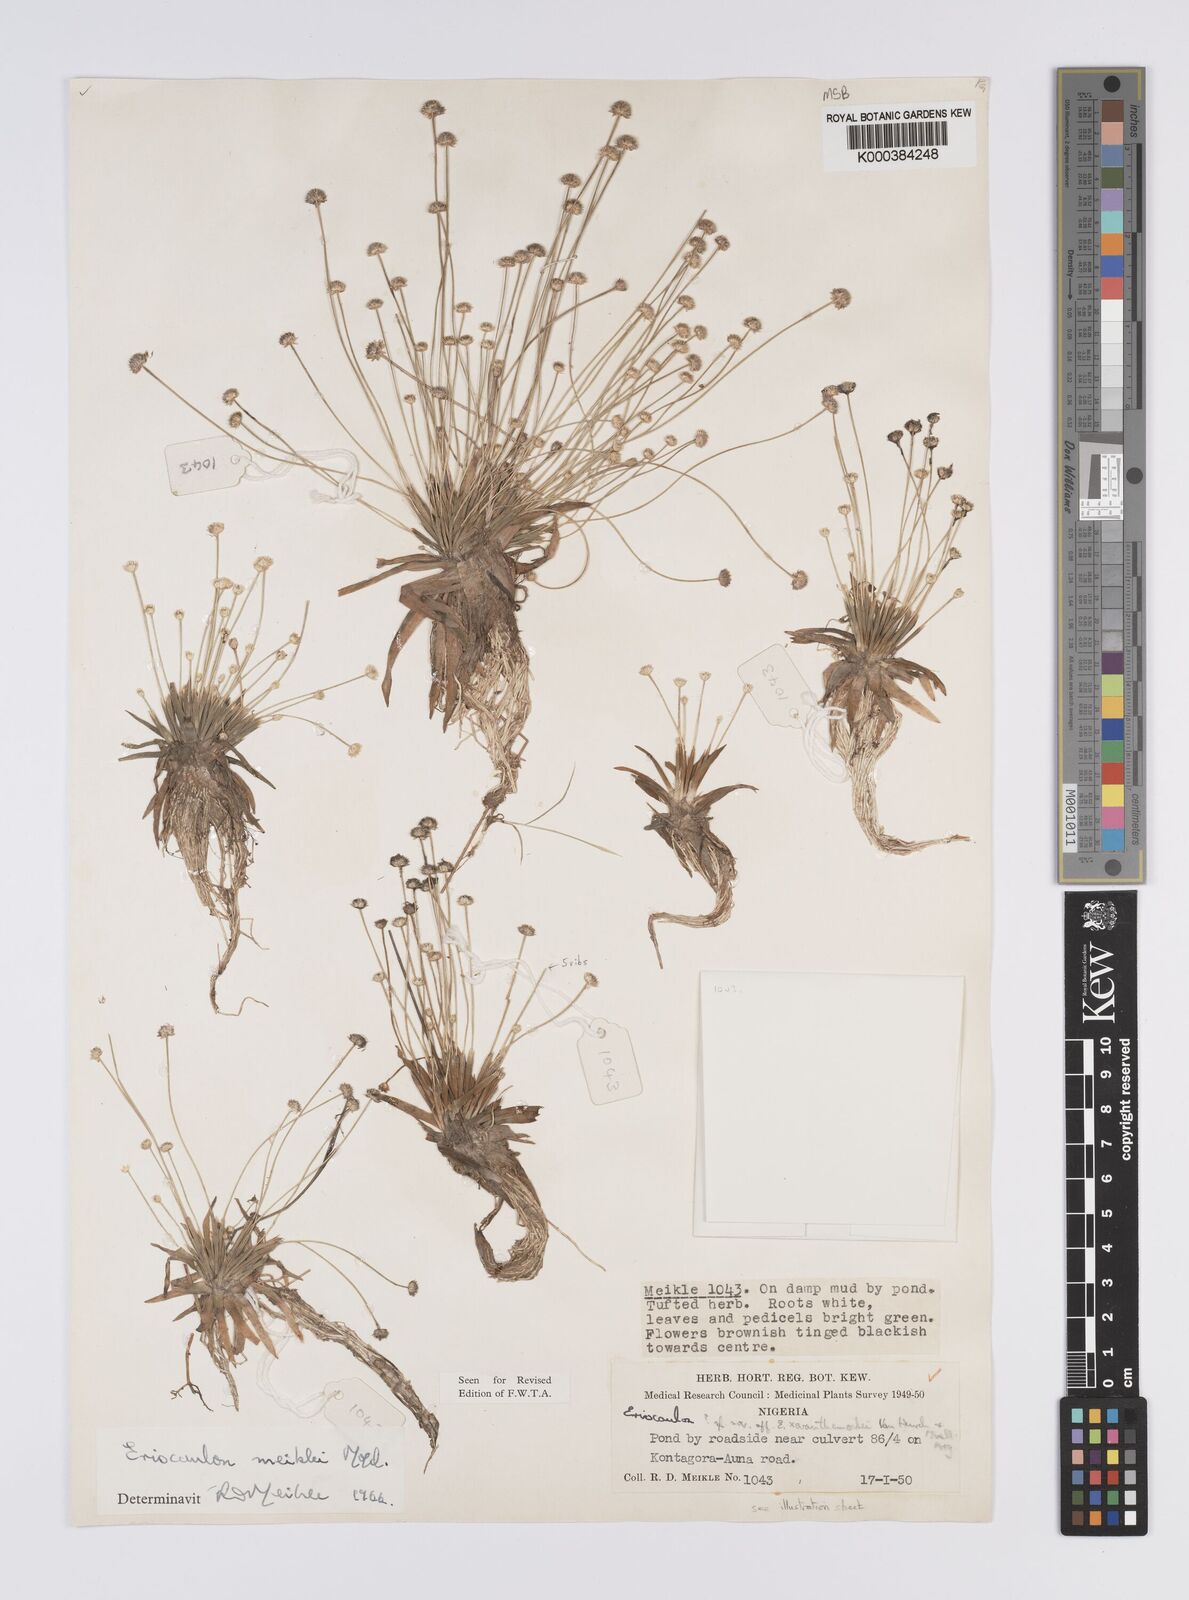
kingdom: Plantae
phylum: Tracheophyta
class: Liliopsida
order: Poales
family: Eriocaulaceae
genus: Eriocaulon
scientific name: Eriocaulon meiklei
